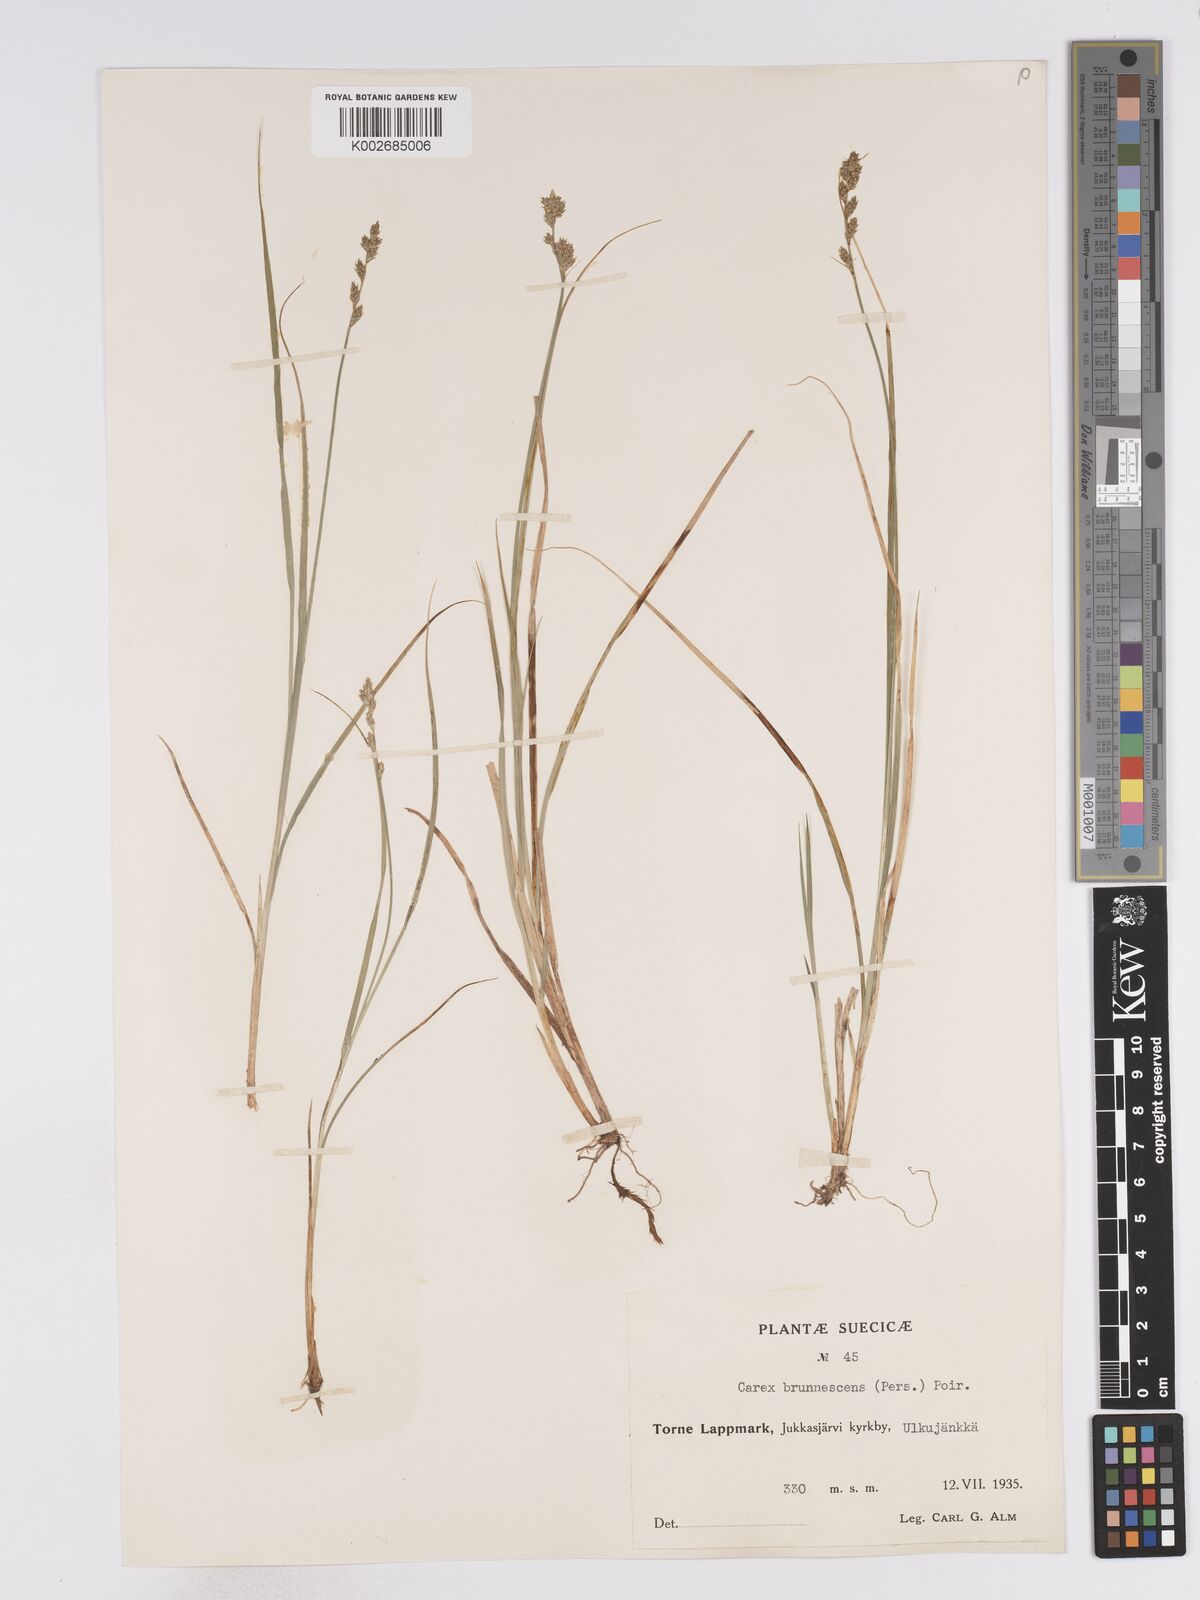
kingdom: Plantae
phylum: Tracheophyta
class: Liliopsida
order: Poales
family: Cyperaceae
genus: Carex
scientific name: Carex brunnescens
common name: Brown sedge
